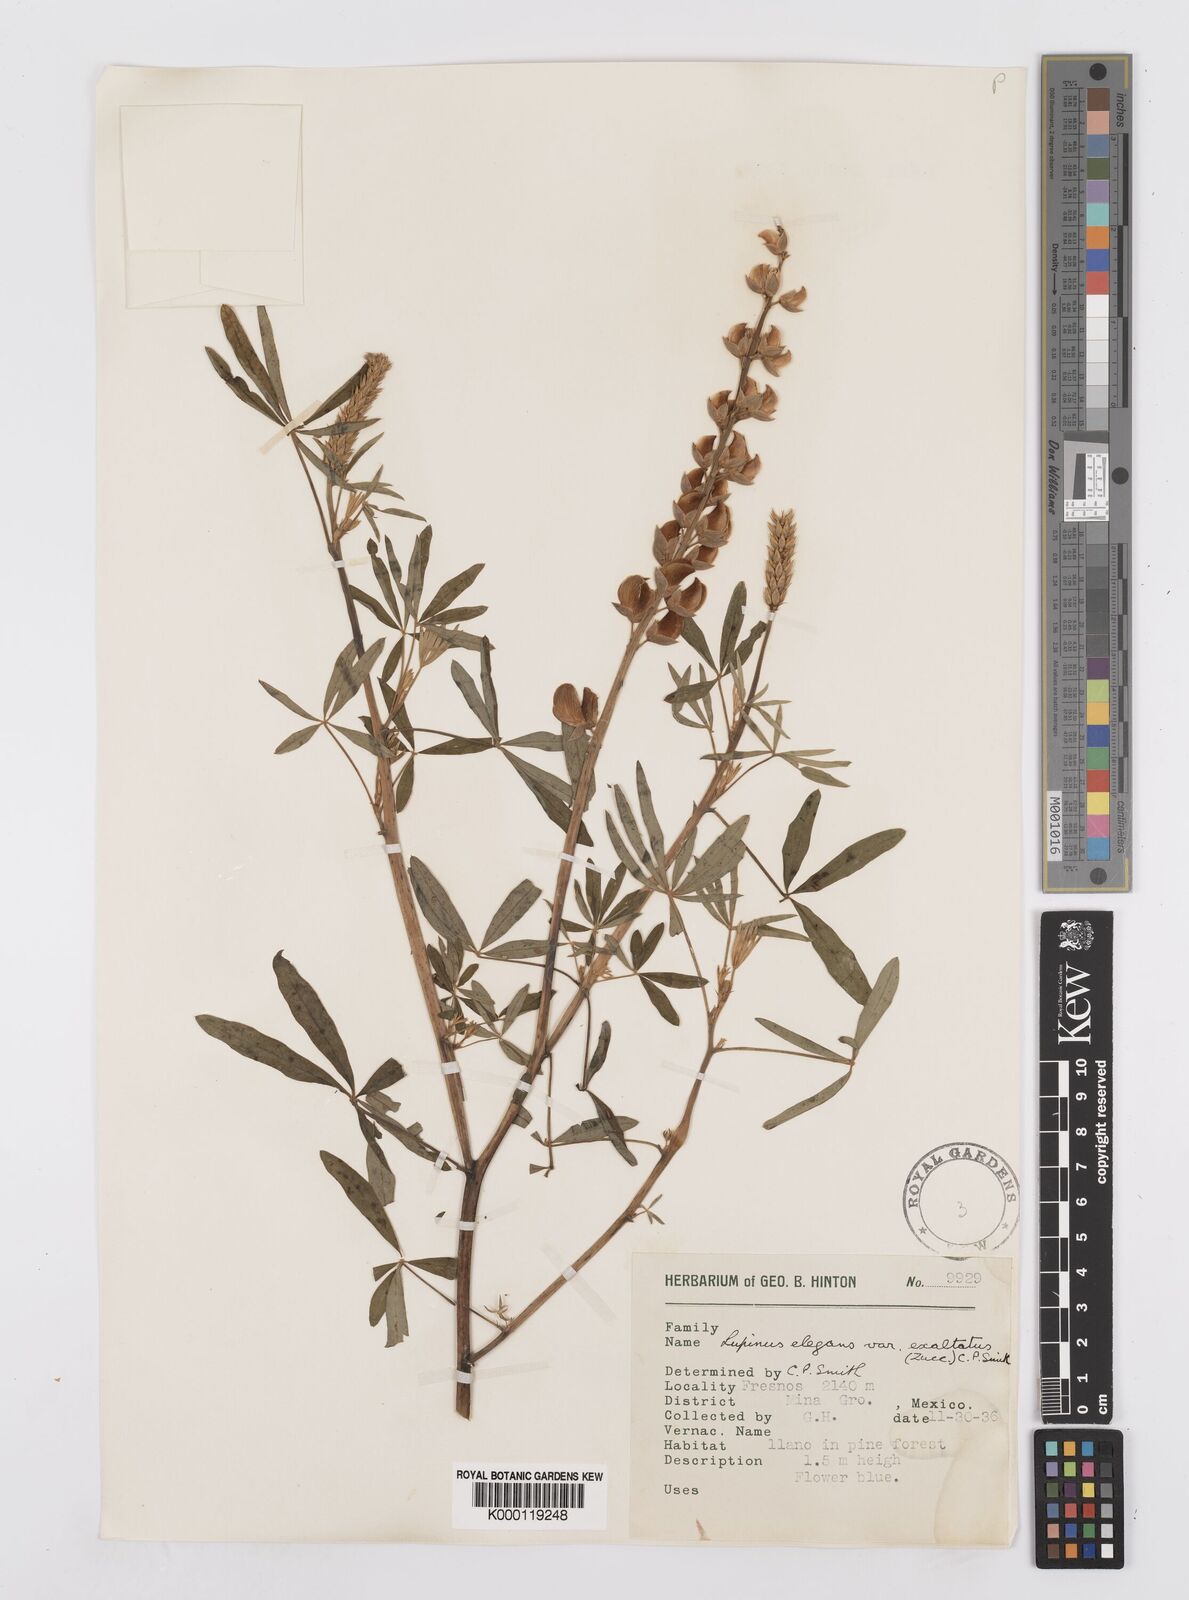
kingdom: Plantae
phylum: Tracheophyta
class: Magnoliopsida
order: Fabales
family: Fabaceae
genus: Lupinus
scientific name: Lupinus elegans
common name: Mexican lupine
